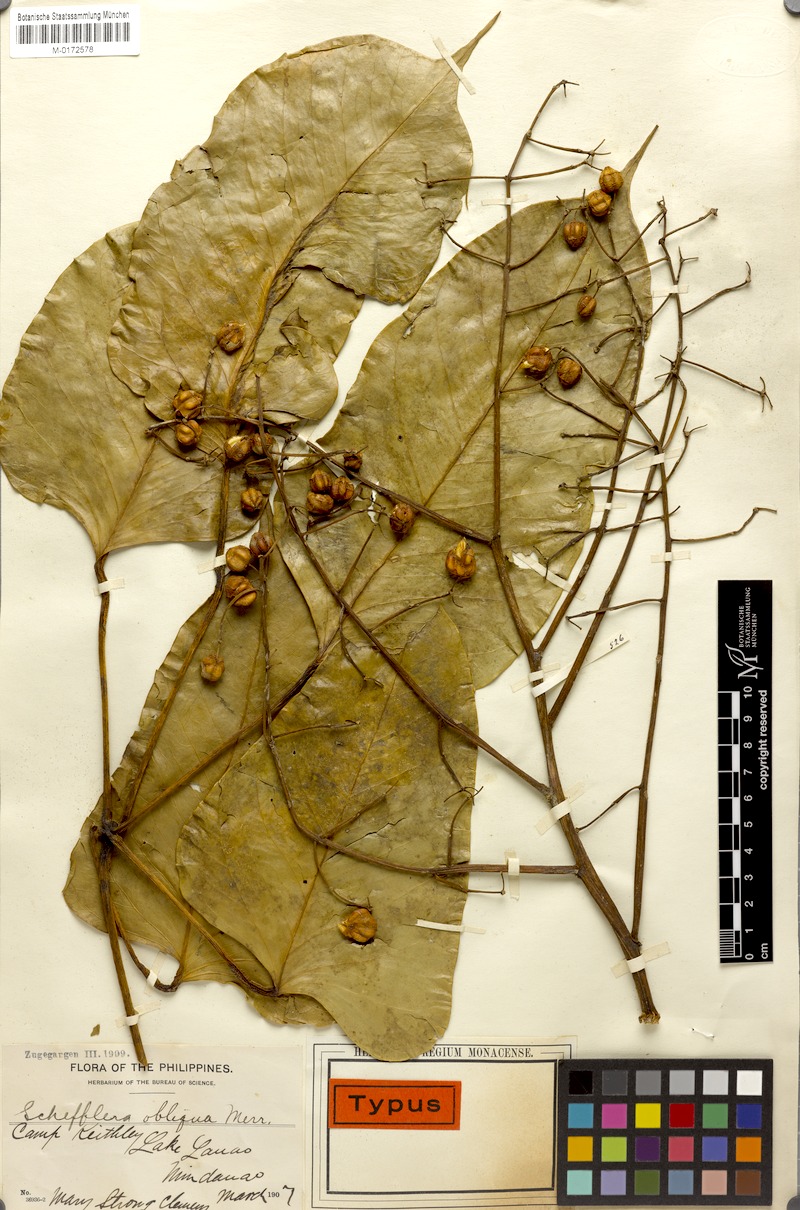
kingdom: Plantae
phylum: Tracheophyta
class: Magnoliopsida
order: Apiales
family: Araliaceae
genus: Heptapleurum
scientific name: Heptapleurum obliquum
